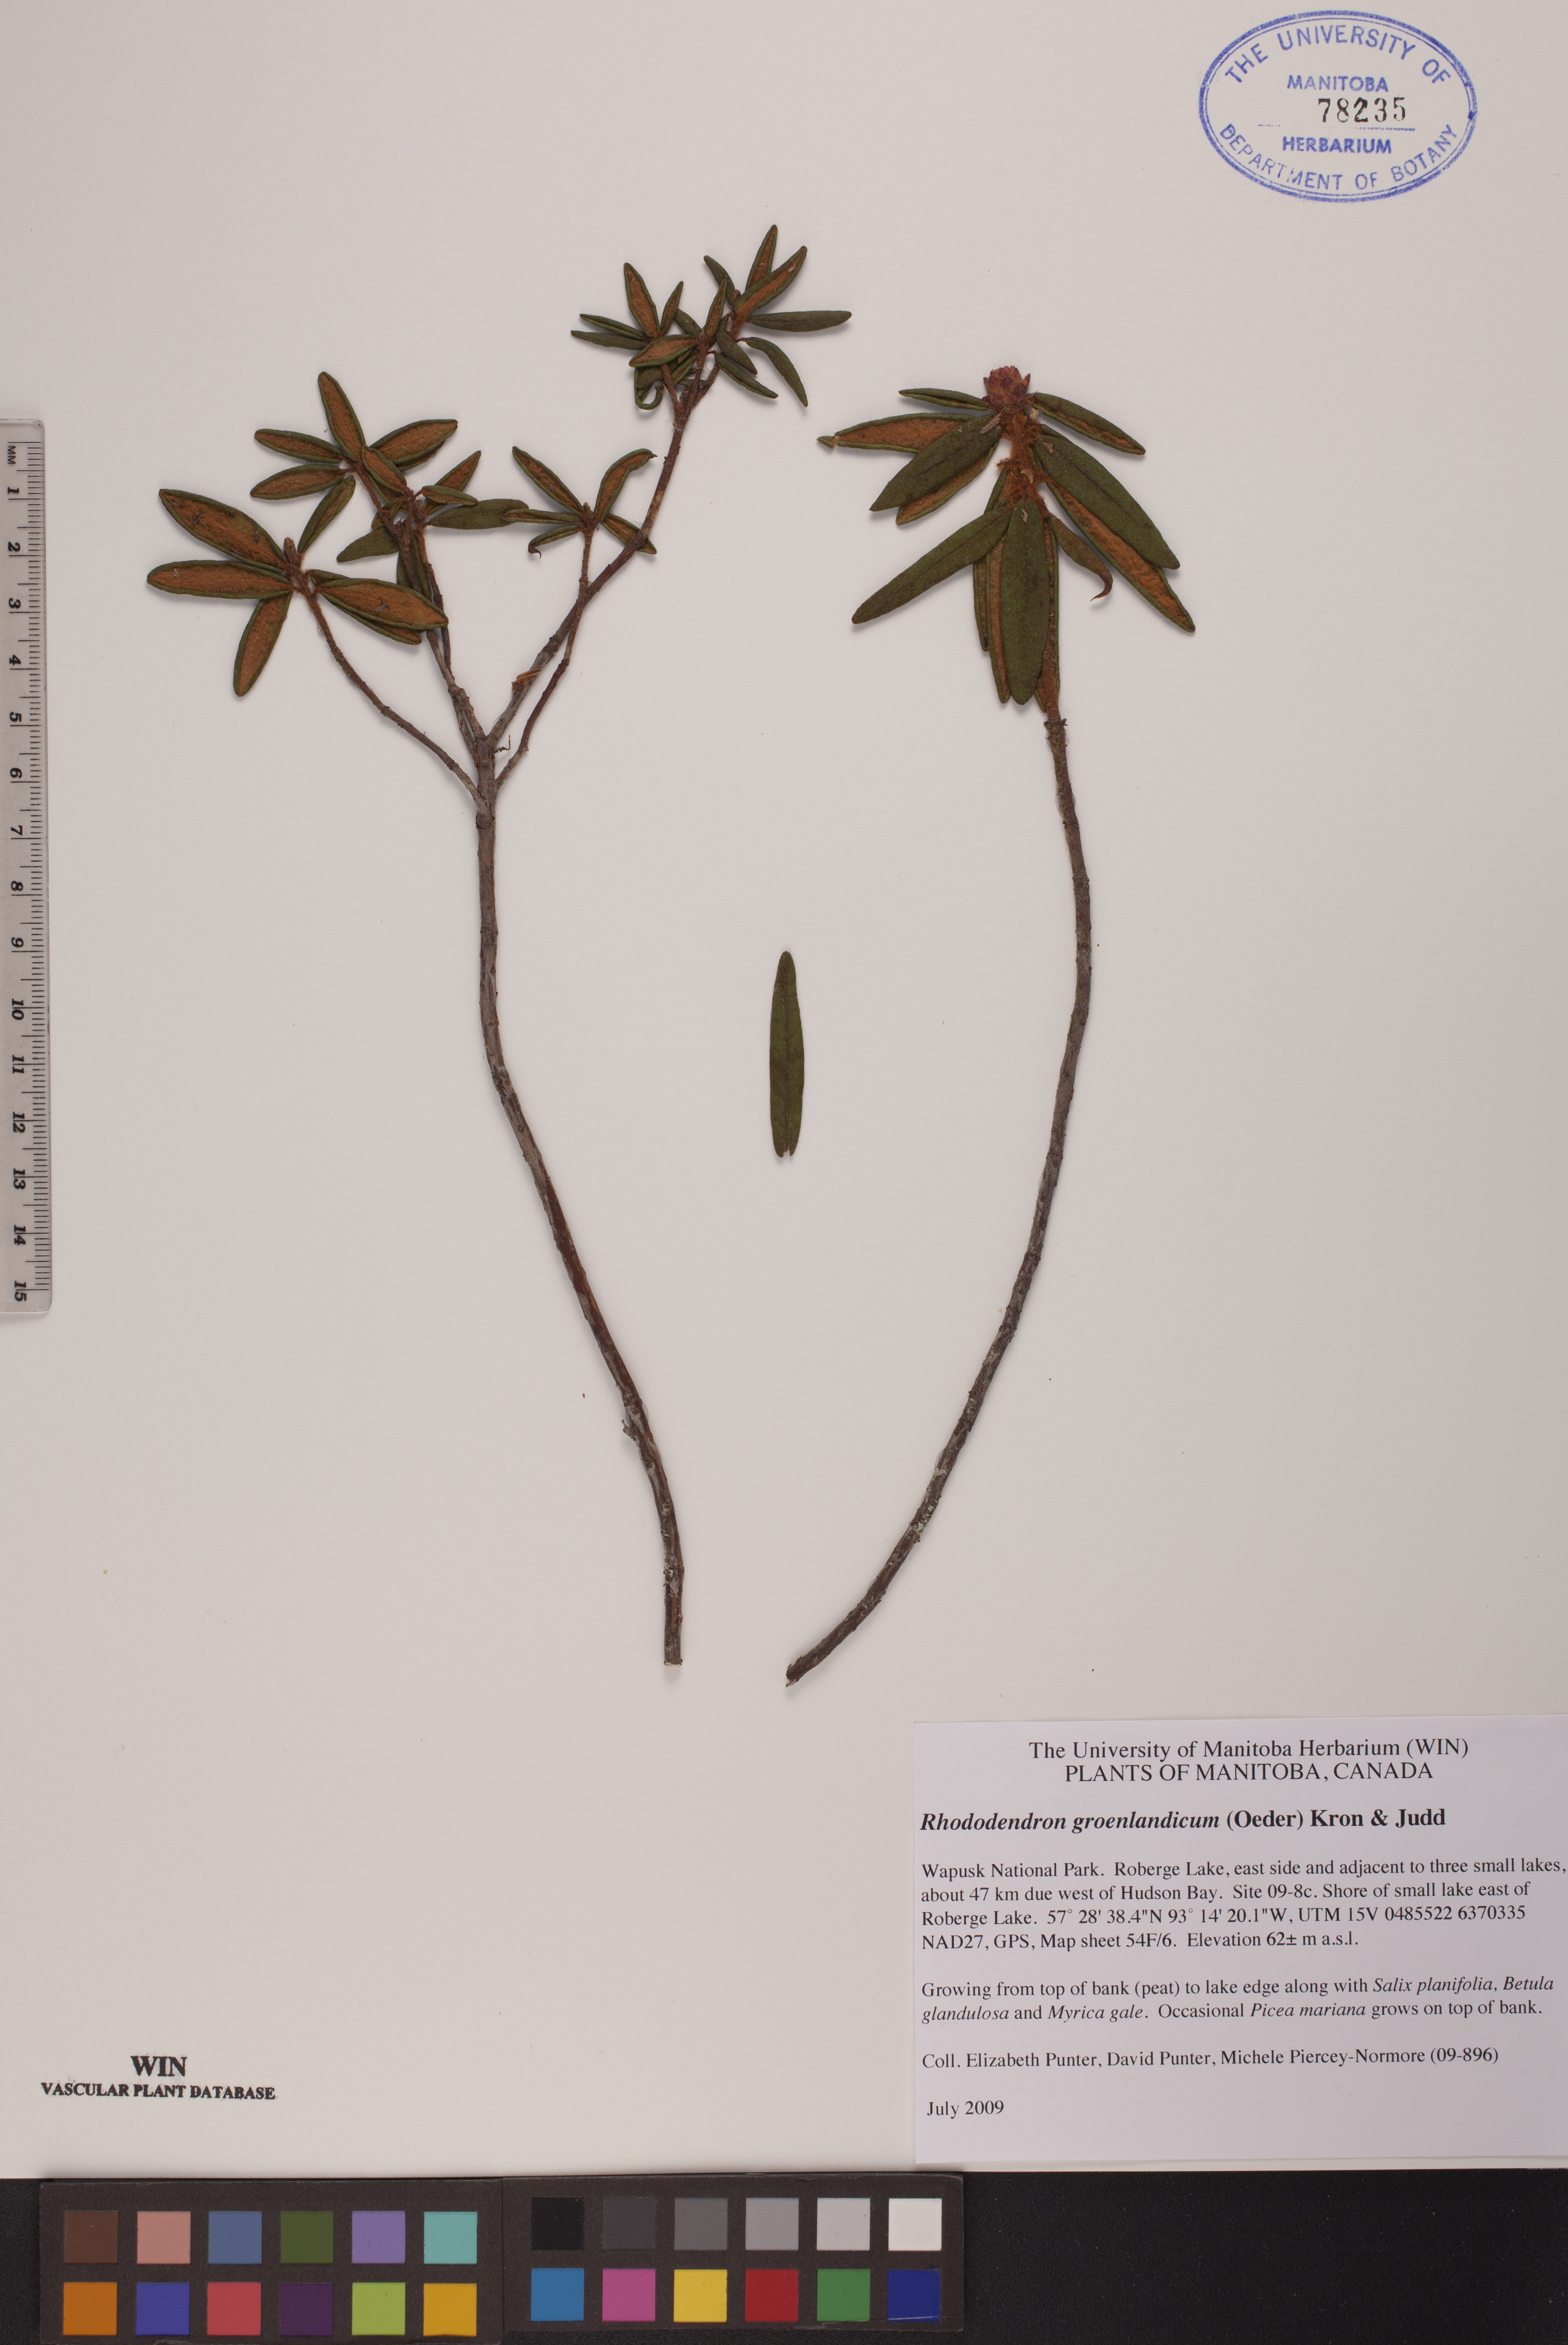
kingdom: Plantae
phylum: Tracheophyta
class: Magnoliopsida
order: Ericales
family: Ericaceae
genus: Rhododendron
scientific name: Rhododendron groenlandicum
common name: Bog labrador tea
